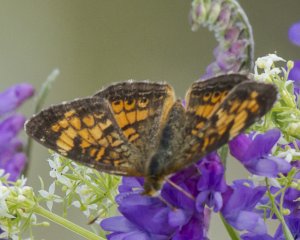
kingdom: Animalia
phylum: Arthropoda
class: Insecta
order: Lepidoptera
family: Nymphalidae
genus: Phyciodes
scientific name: Phyciodes tharos
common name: Northern Crescent
